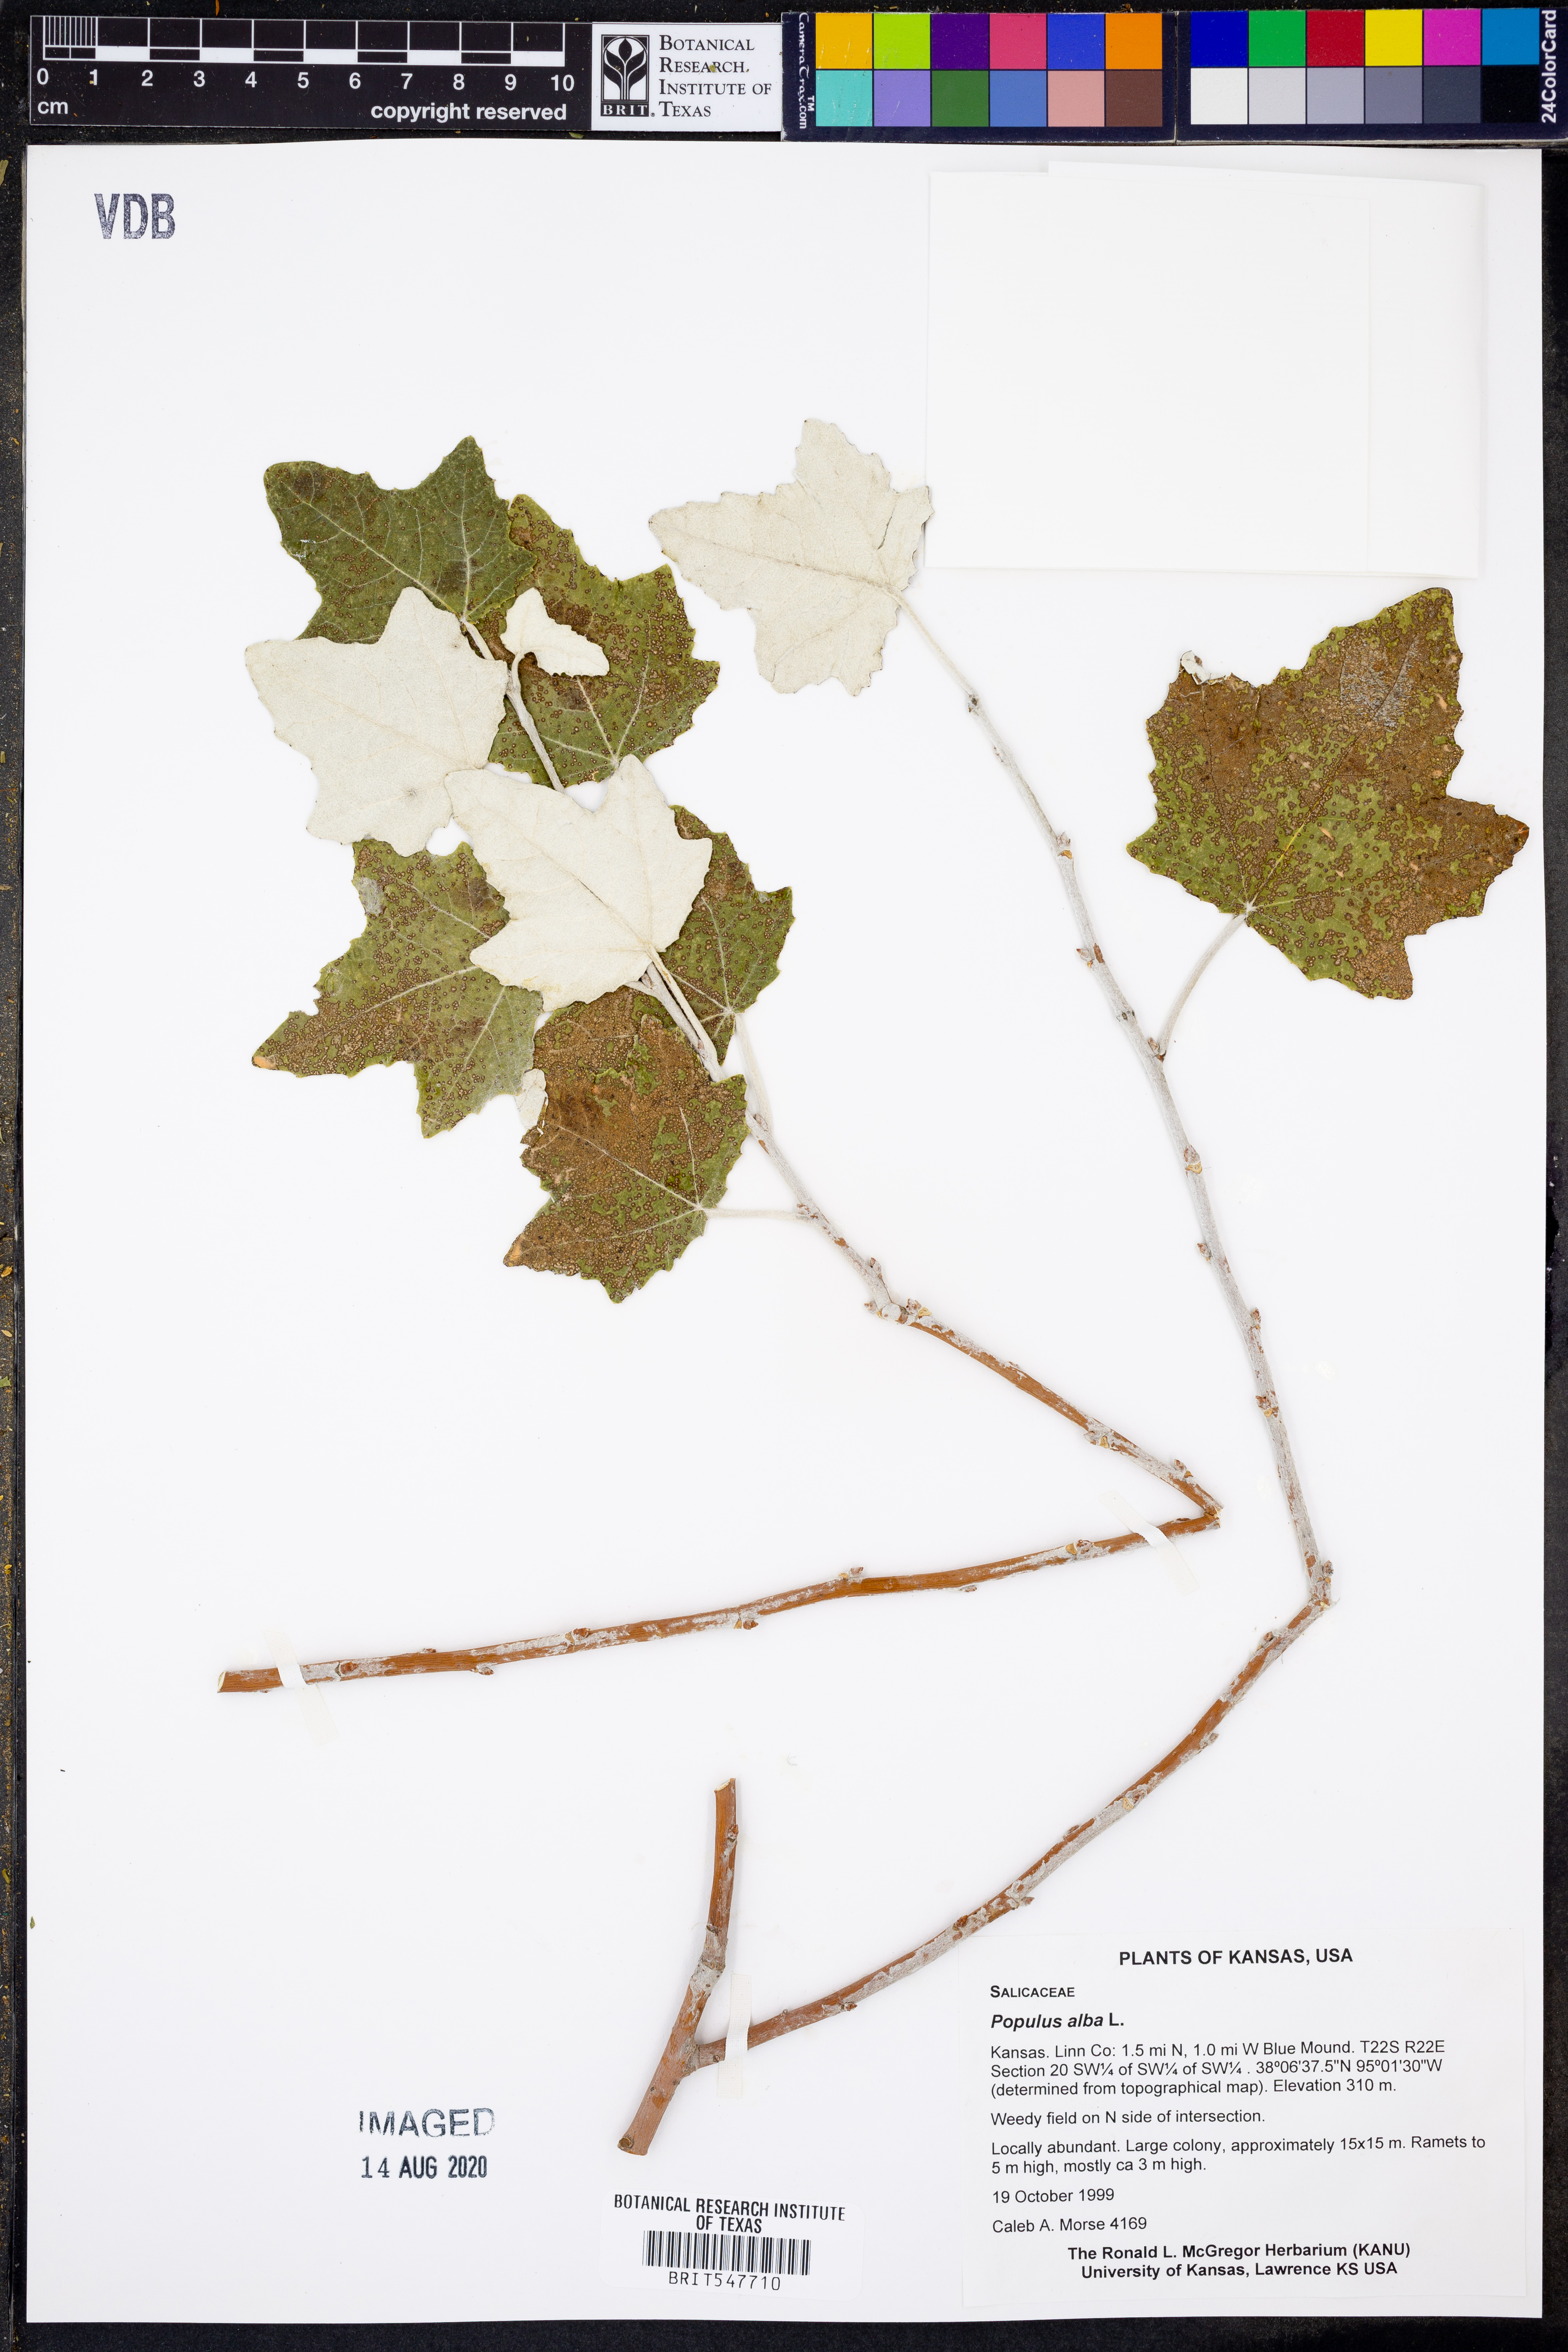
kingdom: Plantae
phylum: Tracheophyta
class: Magnoliopsida
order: Malpighiales
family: Salicaceae
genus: Populus
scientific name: Populus alba
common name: White poplar
